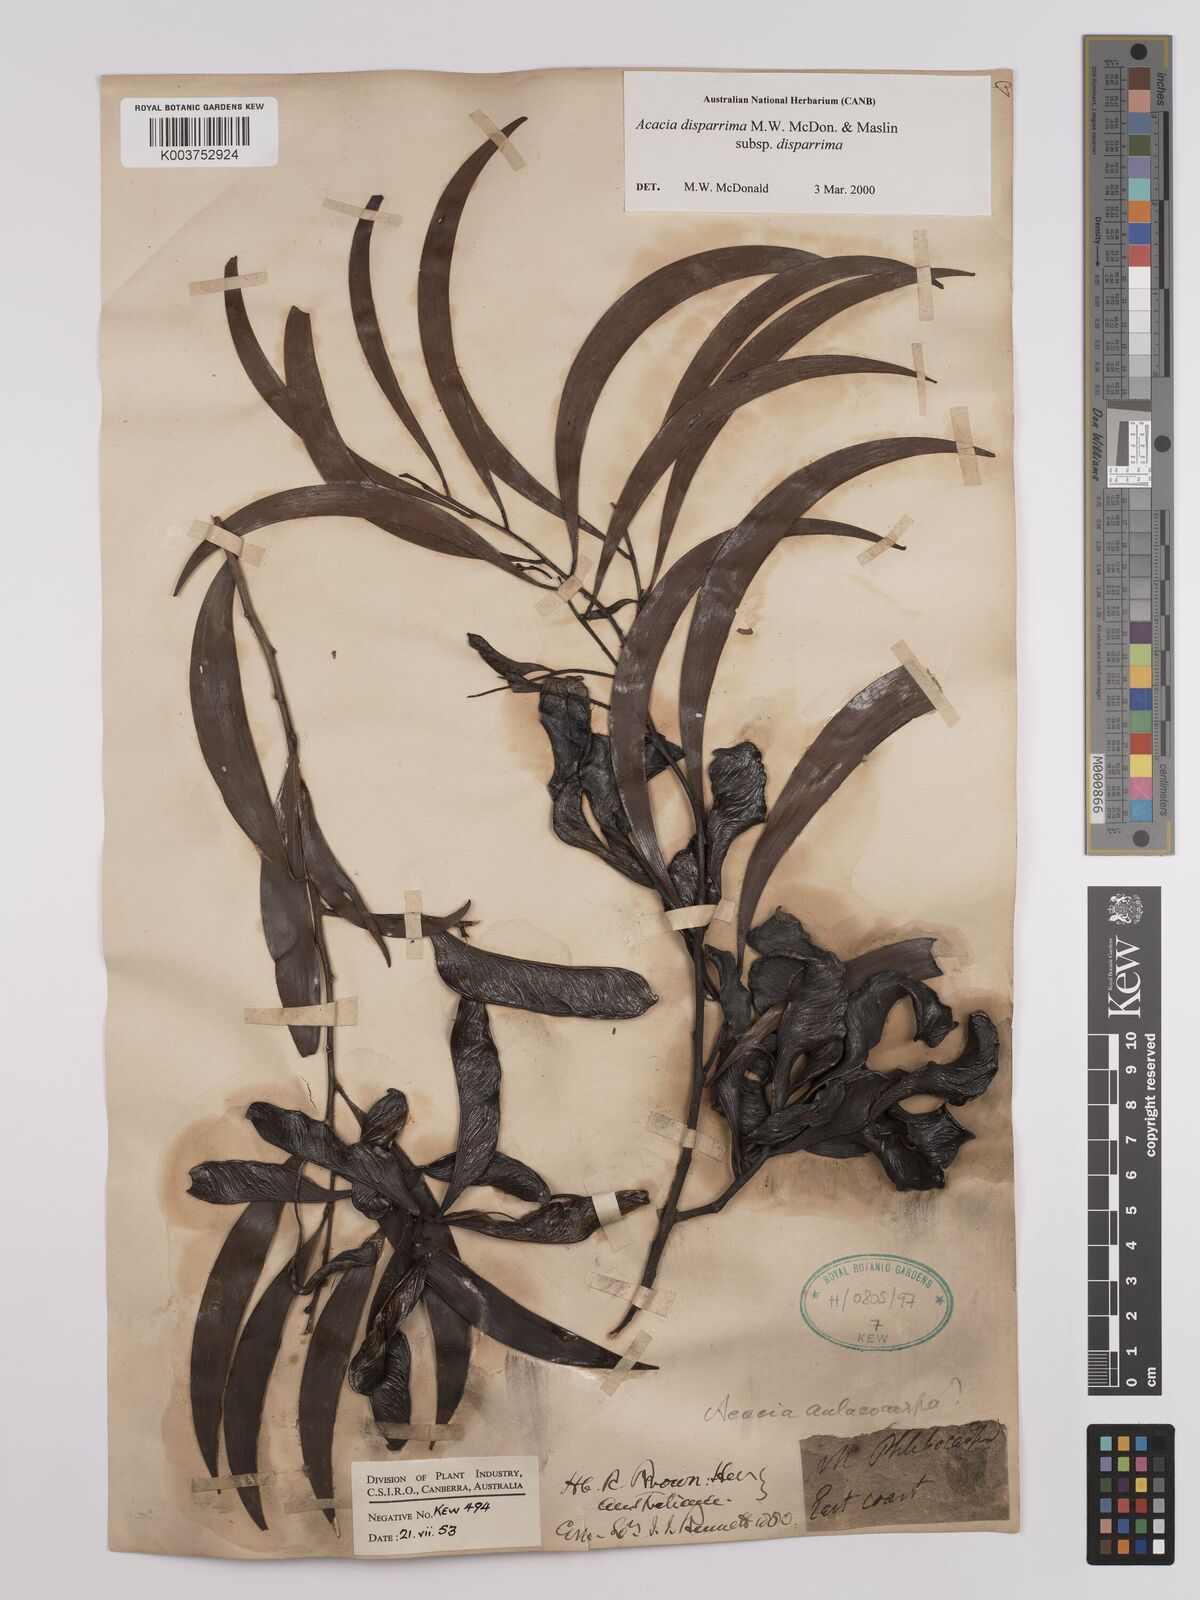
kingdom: Plantae
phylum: Tracheophyta
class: Magnoliopsida
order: Fabales
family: Fabaceae
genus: Acacia
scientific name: Acacia disparrima
